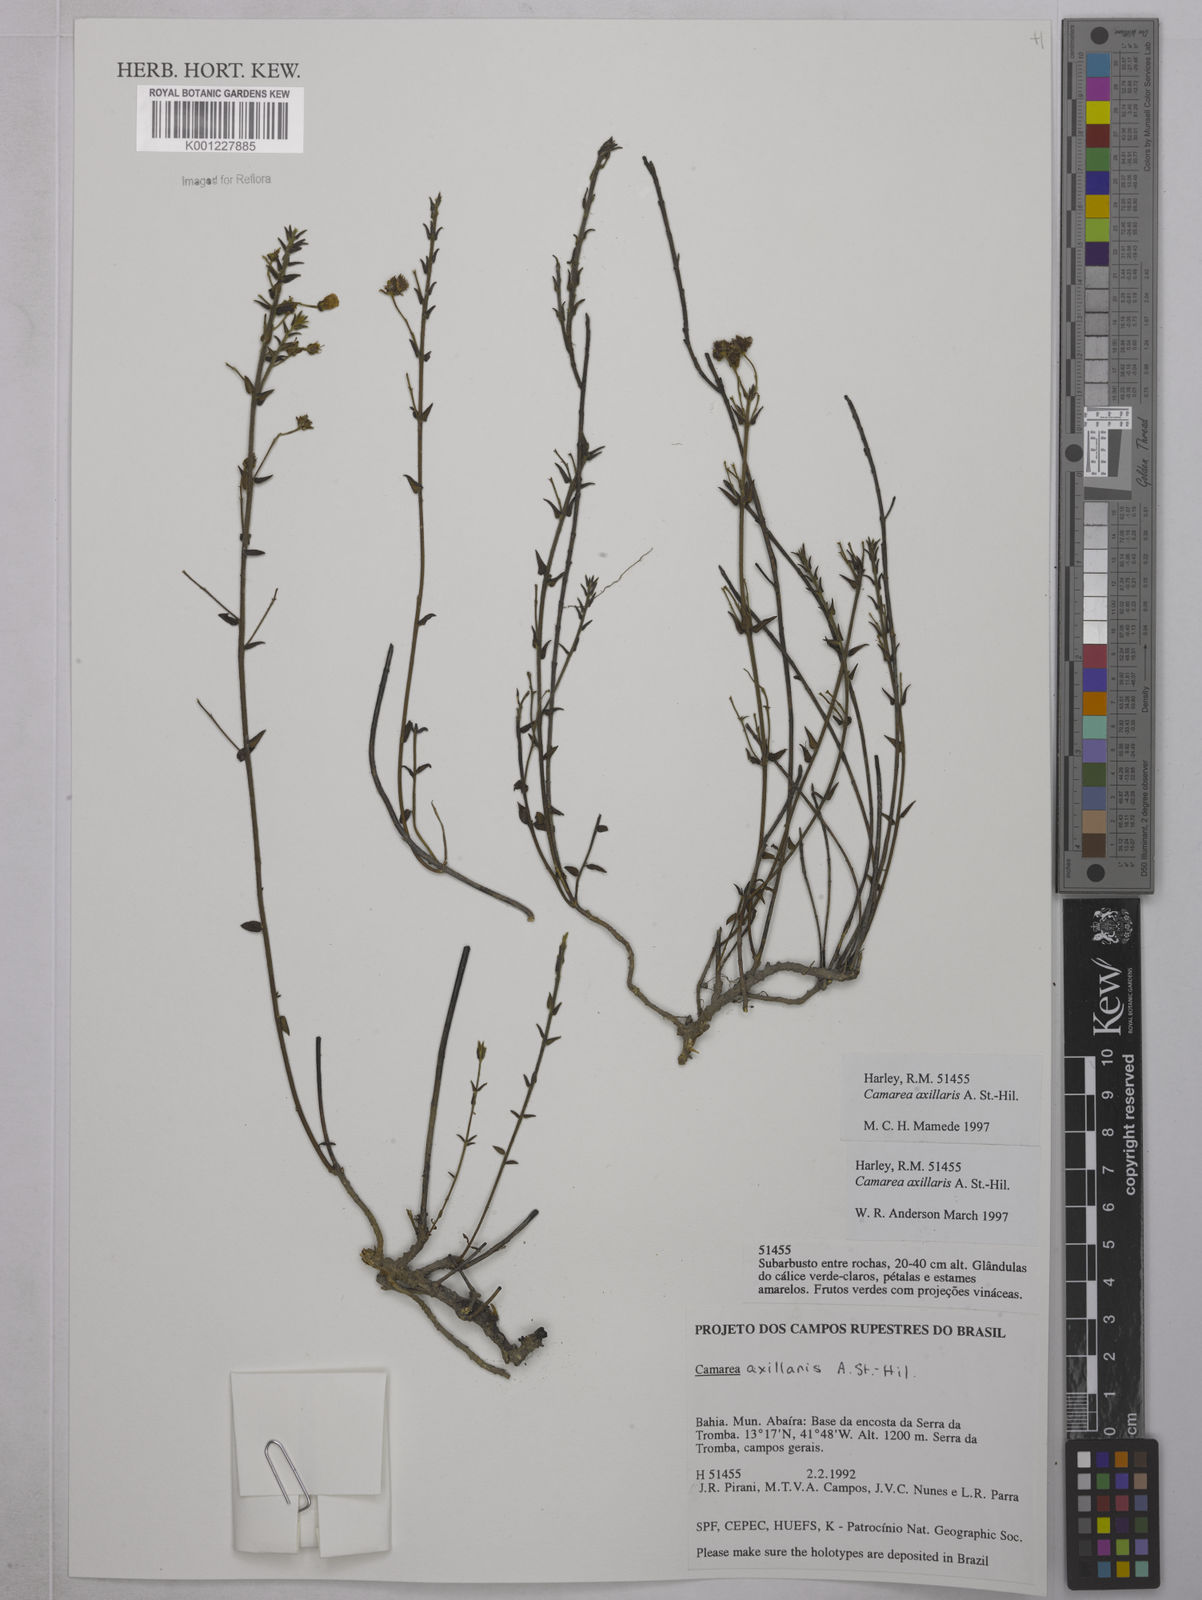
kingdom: Plantae
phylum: Tracheophyta
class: Magnoliopsida
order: Malpighiales
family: Malpighiaceae
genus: Camarea
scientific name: Camarea axillaris
